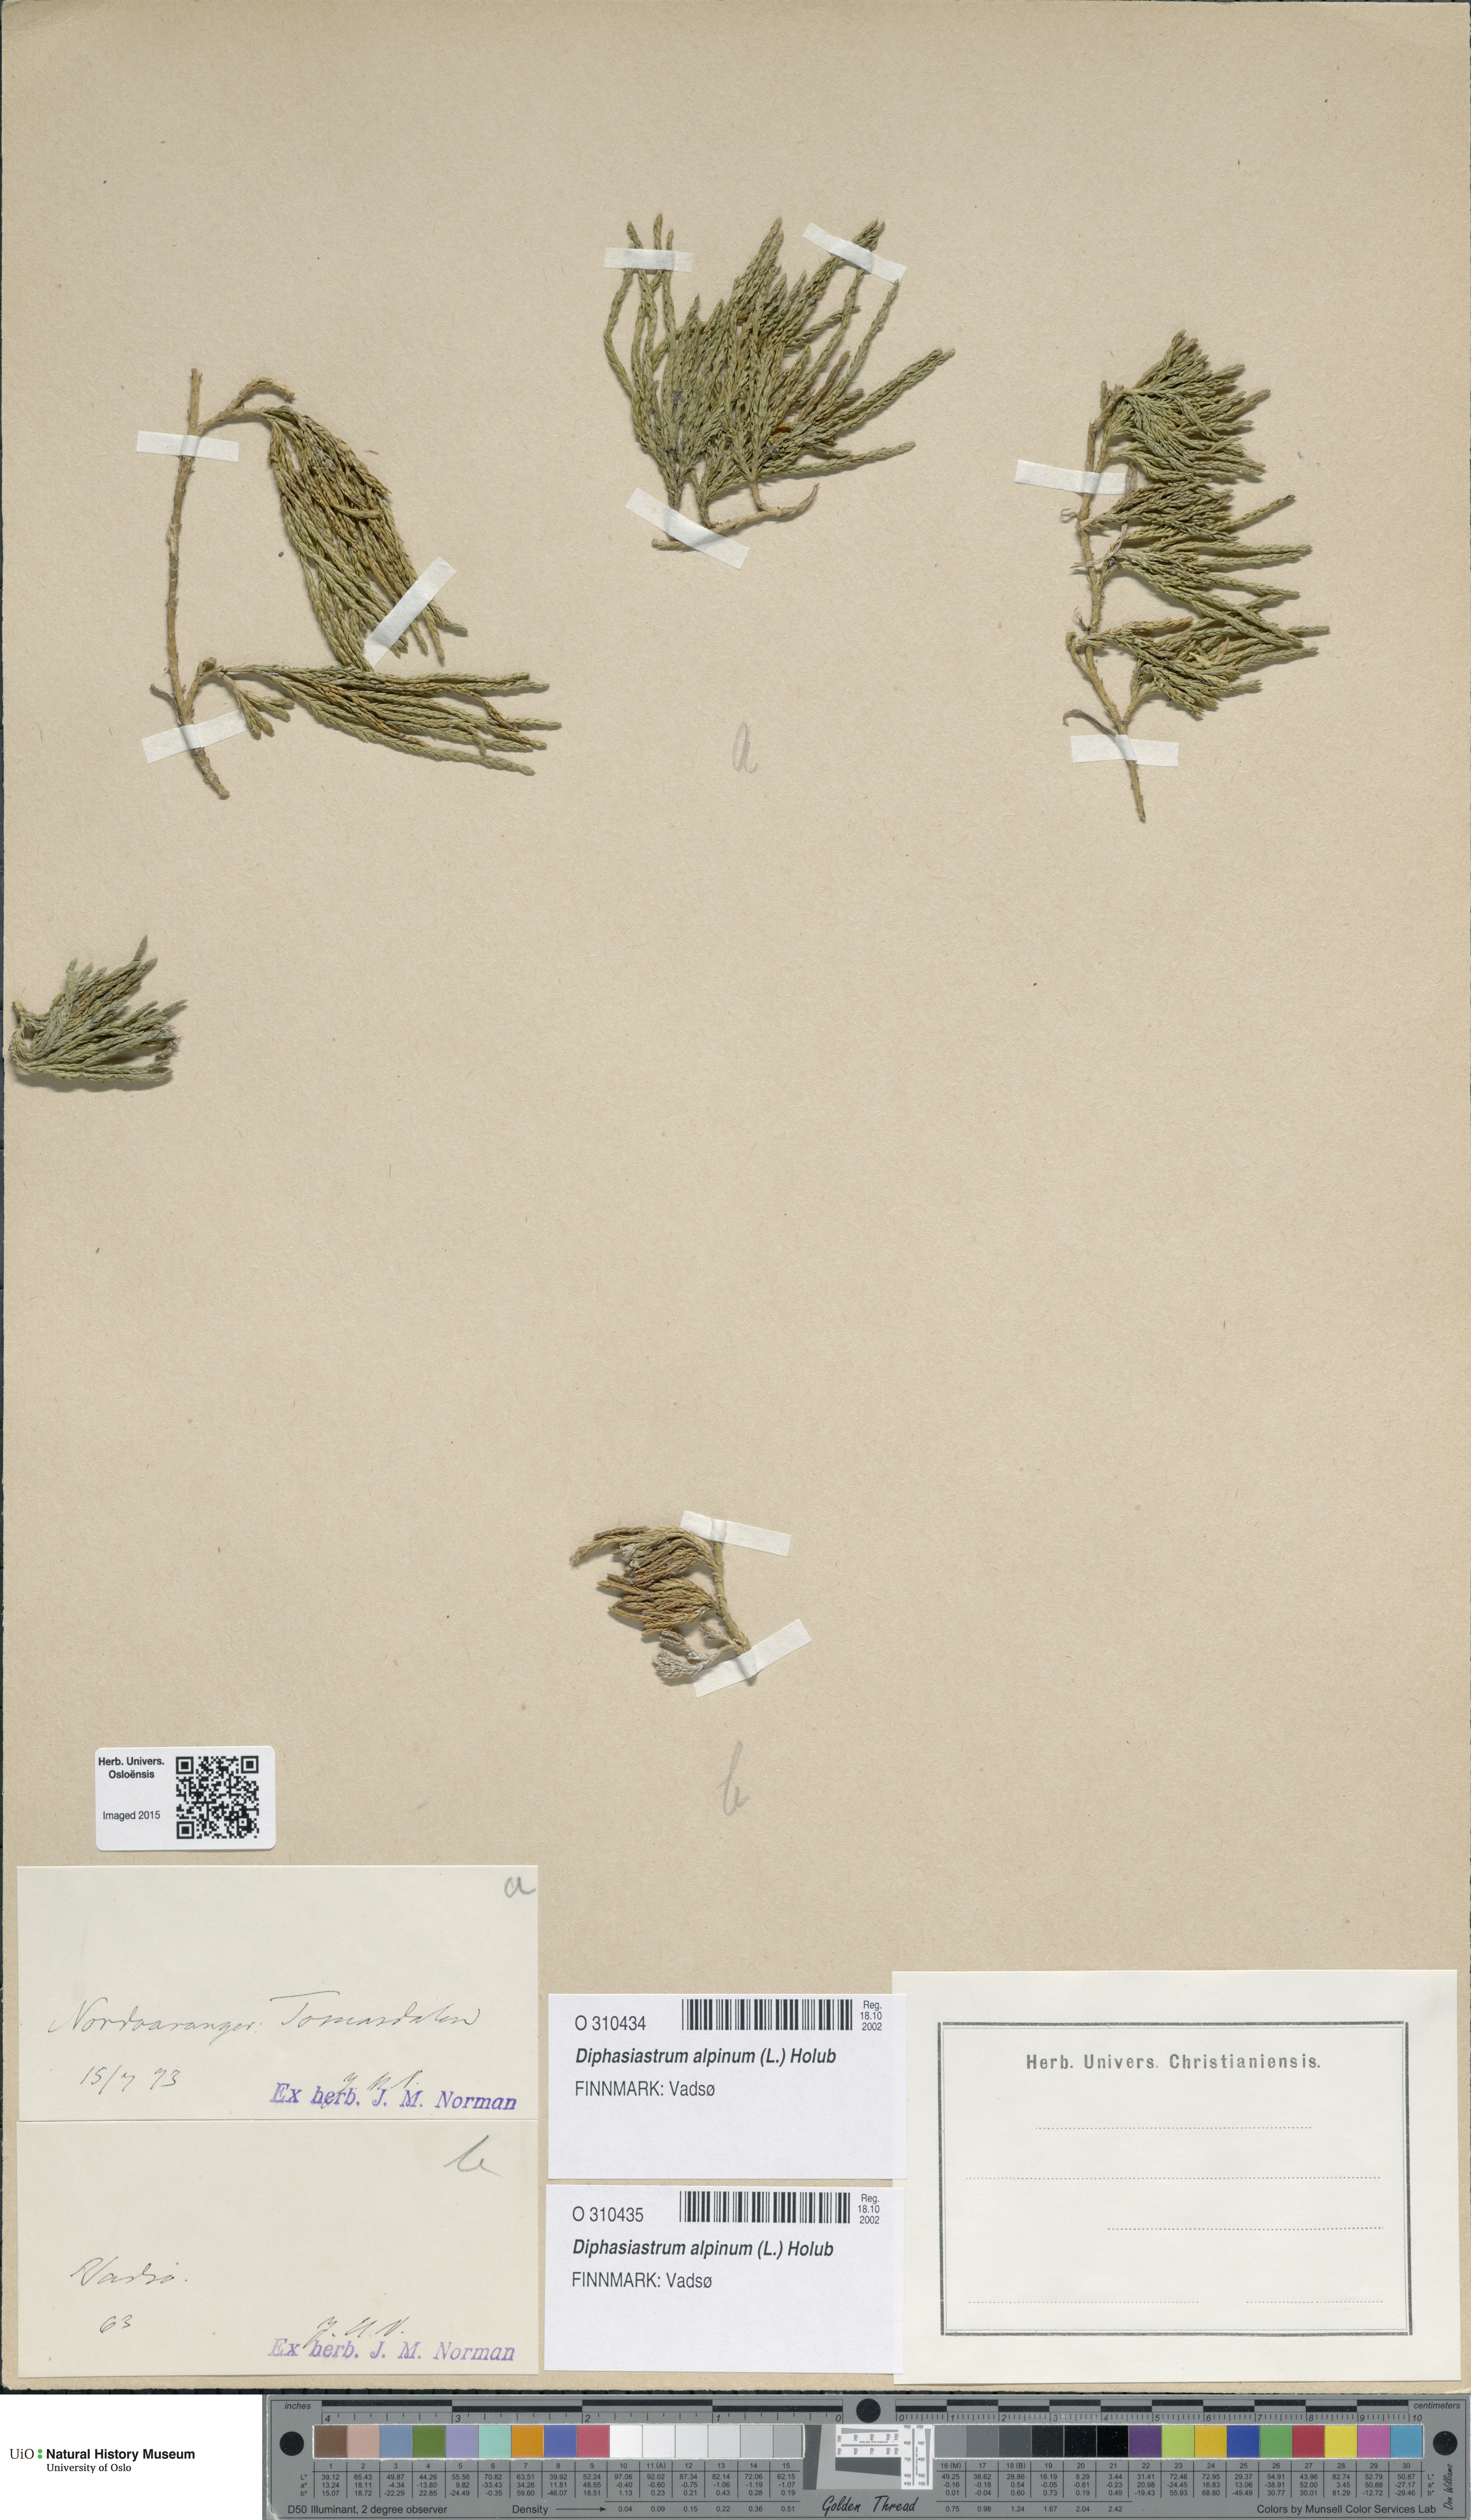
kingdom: Plantae
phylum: Tracheophyta
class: Lycopodiopsida
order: Lycopodiales
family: Lycopodiaceae
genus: Diphasiastrum
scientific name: Diphasiastrum alpinum
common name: Alpine clubmoss
